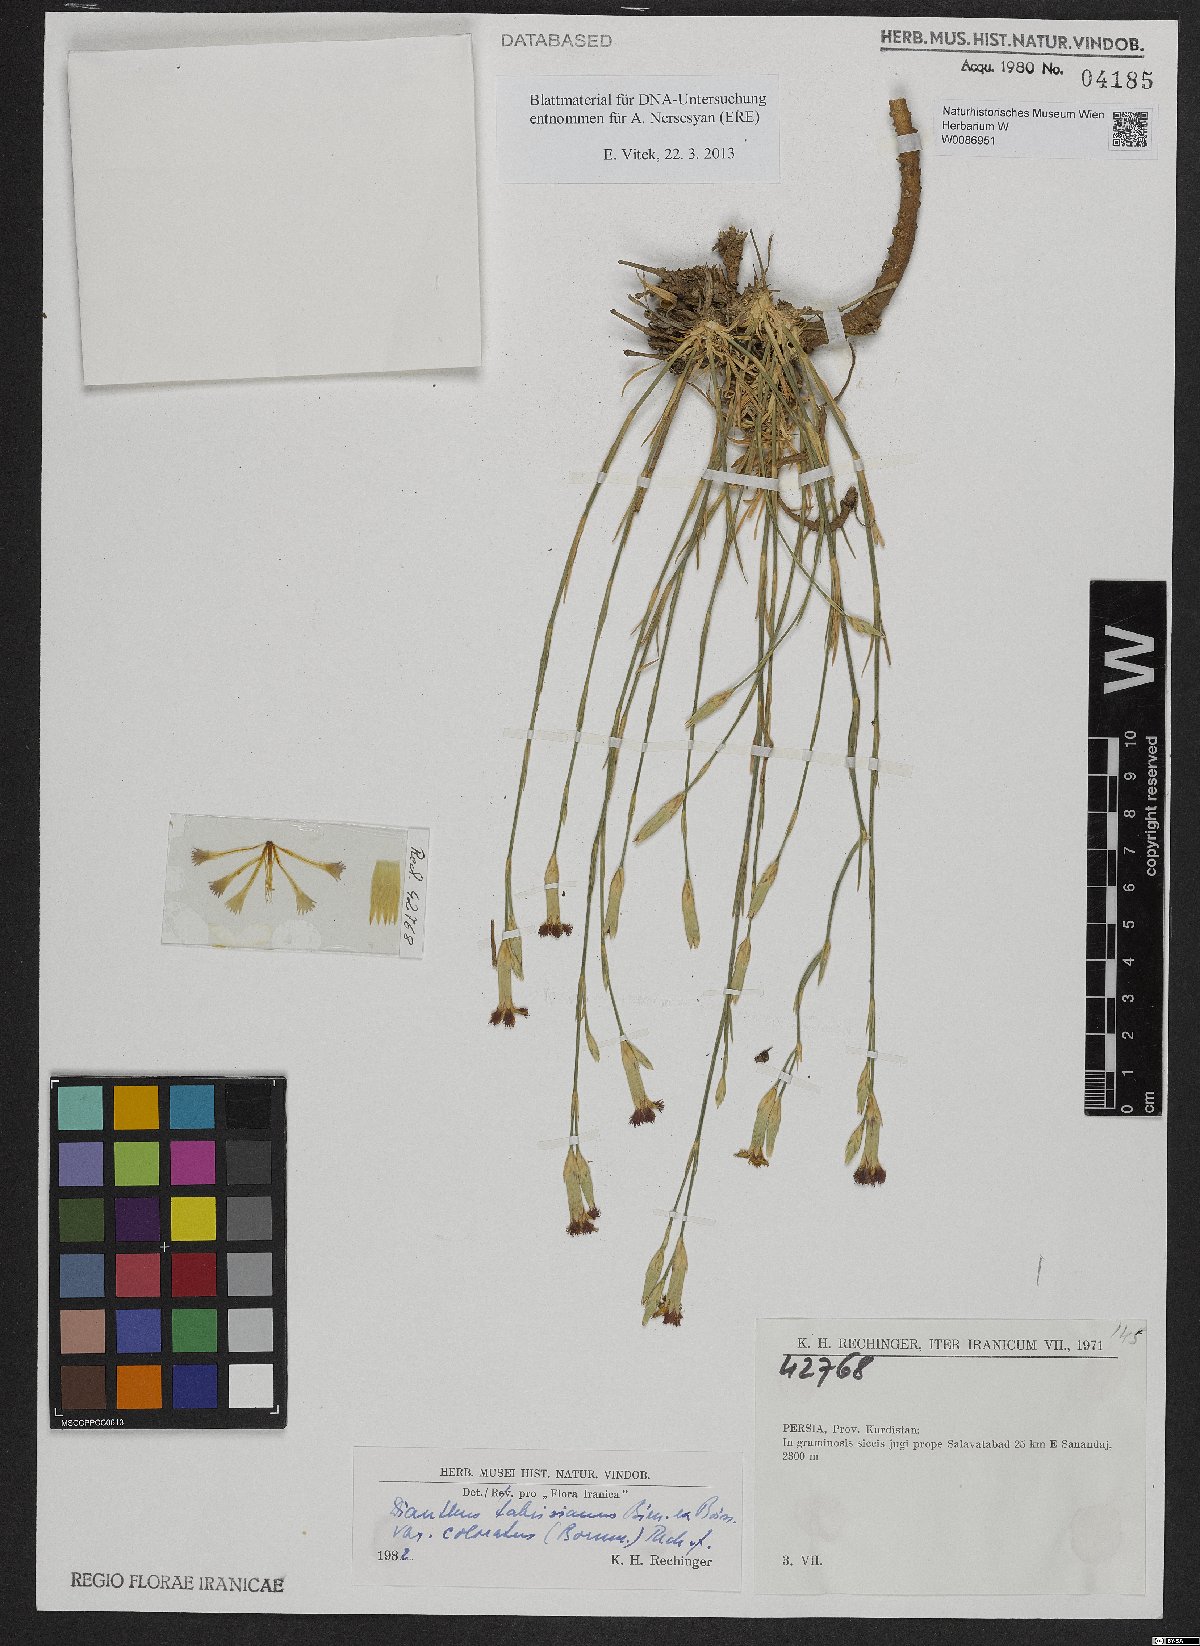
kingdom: Plantae
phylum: Tracheophyta
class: Magnoliopsida
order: Caryophyllales
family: Caryophyllaceae
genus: Dianthus
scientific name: Dianthus tabrisianus
